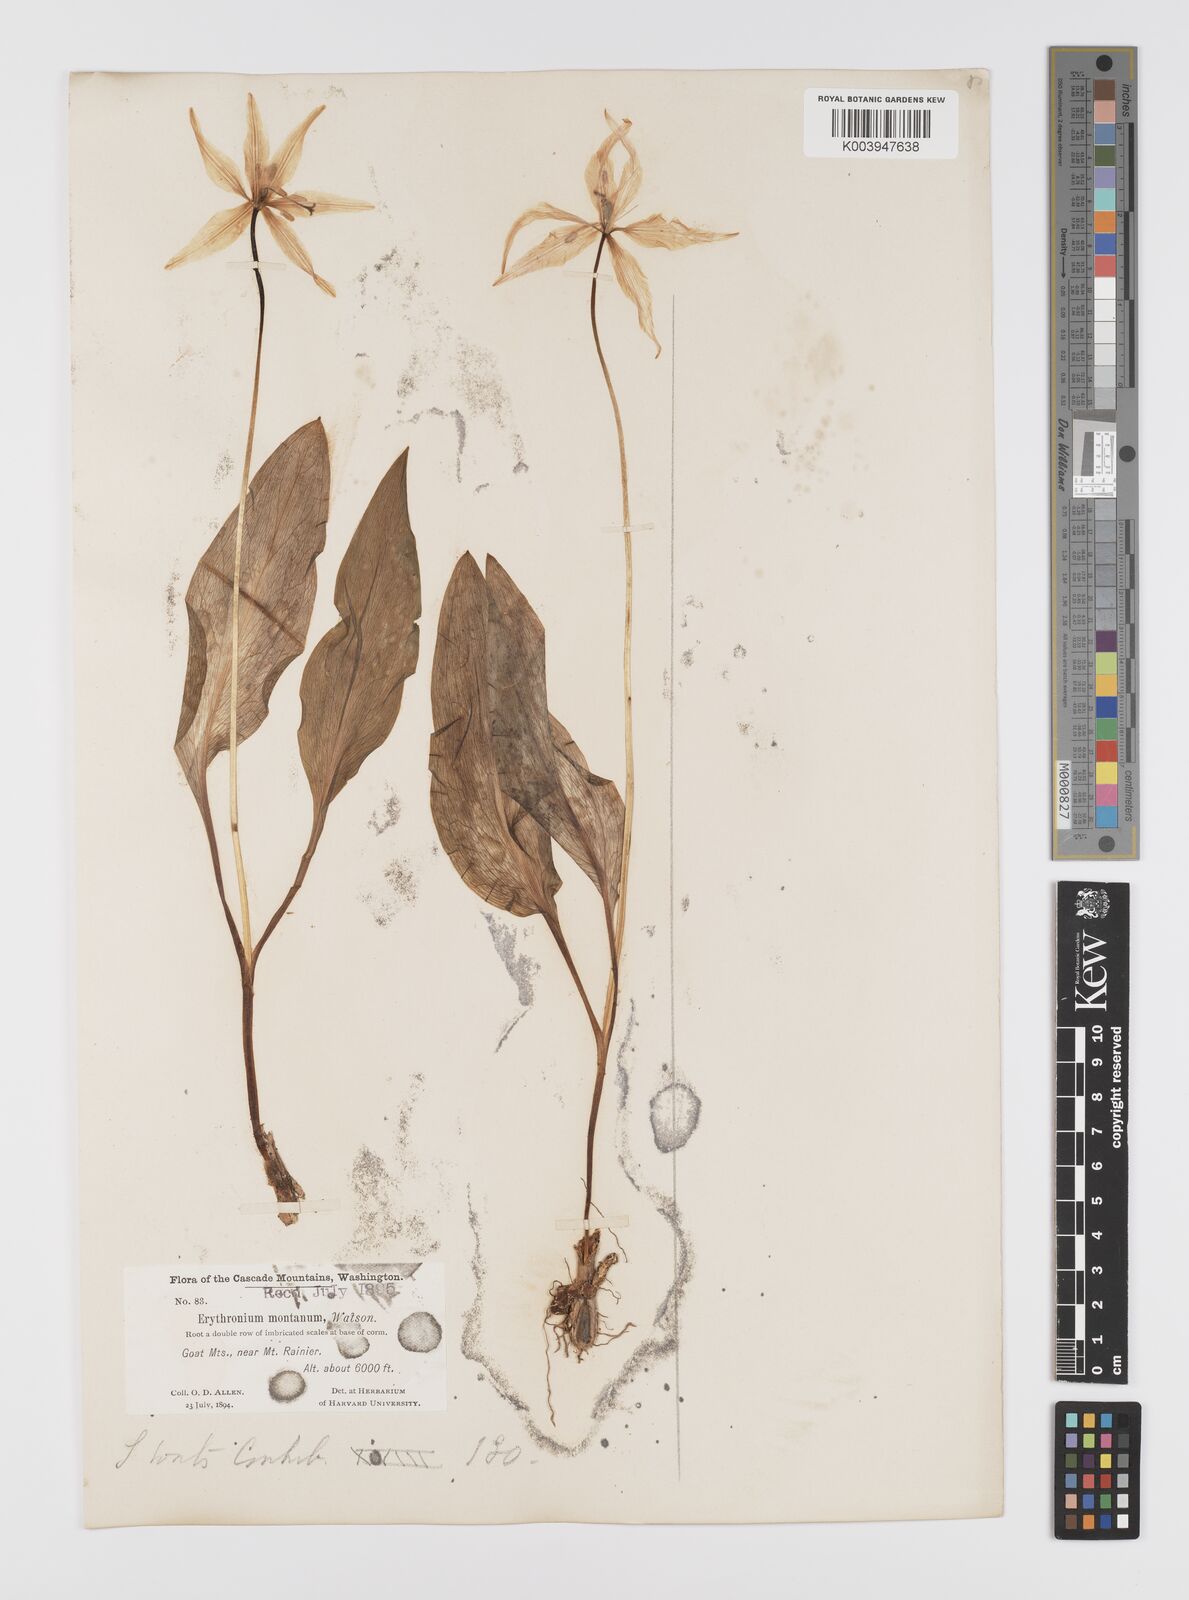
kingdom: Plantae
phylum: Tracheophyta
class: Liliopsida
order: Liliales
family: Liliaceae
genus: Erythronium
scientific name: Erythronium montanum
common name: Avalanche lily
